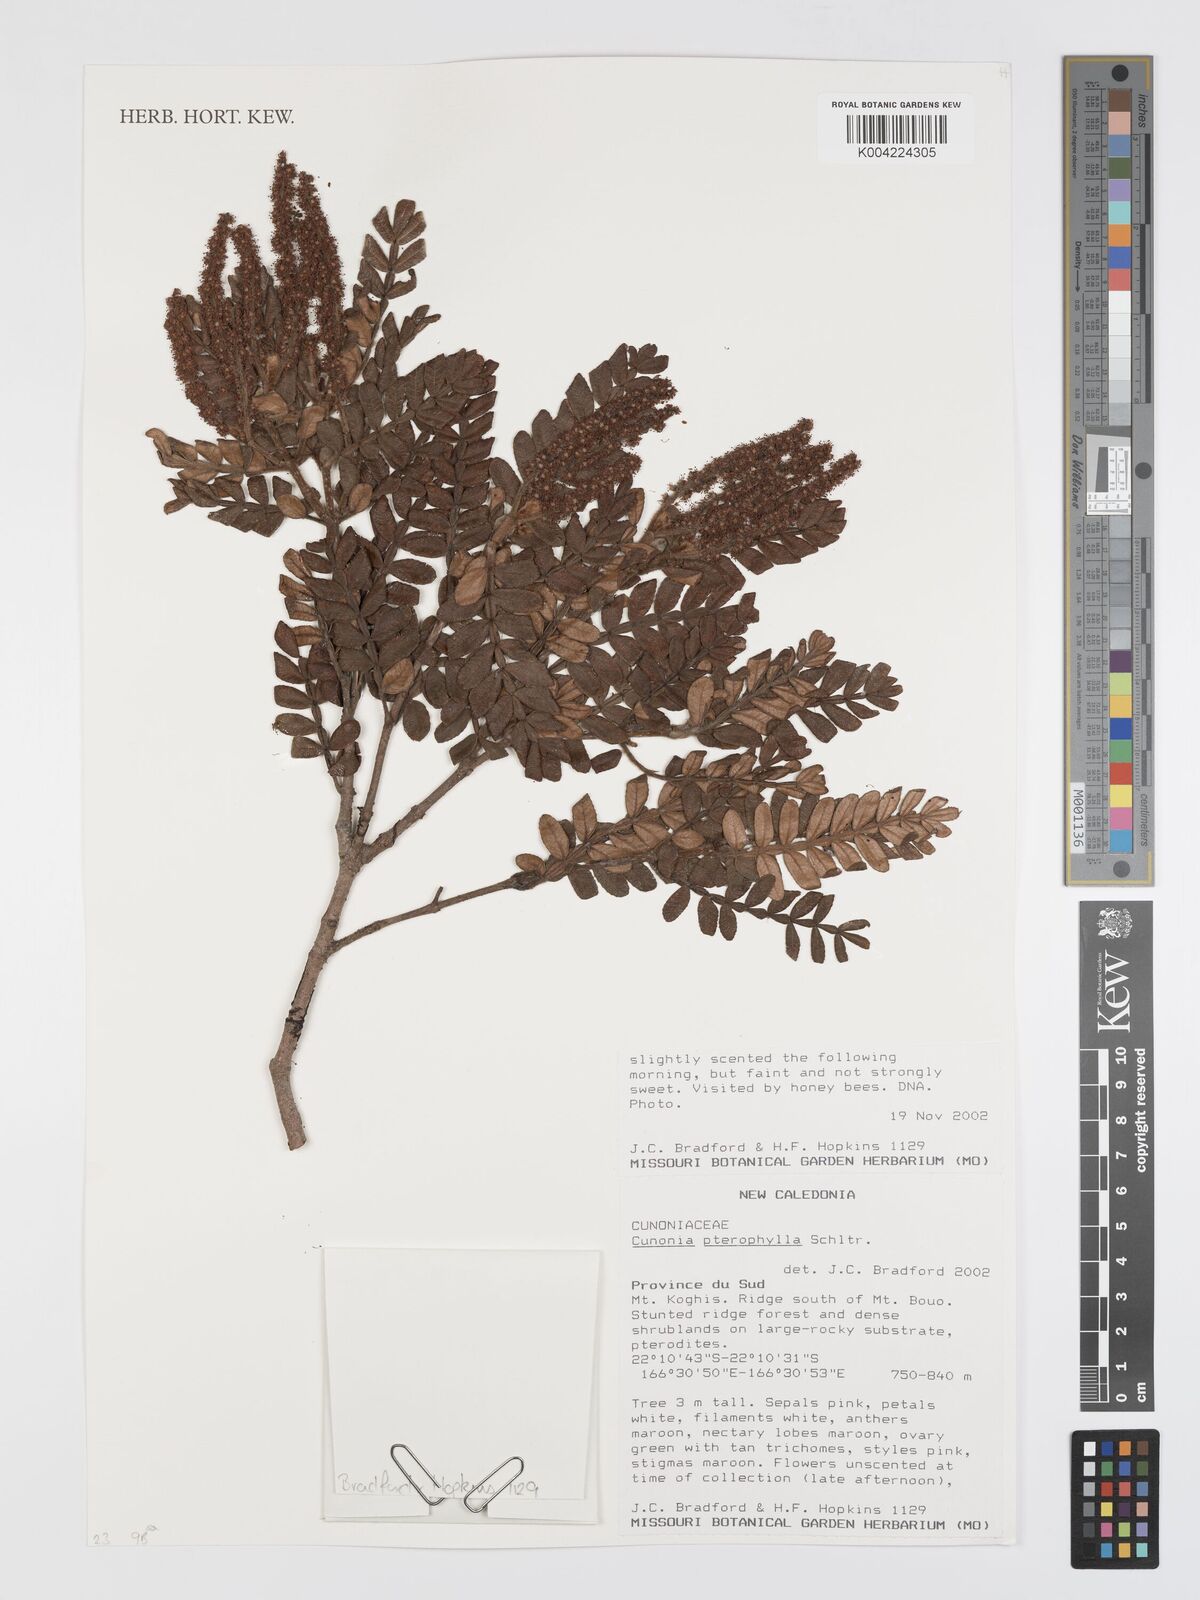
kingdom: Plantae
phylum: Tracheophyta
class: Magnoliopsida
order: Oxalidales
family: Cunoniaceae
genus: Cunonia
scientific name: Cunonia pterophylla
